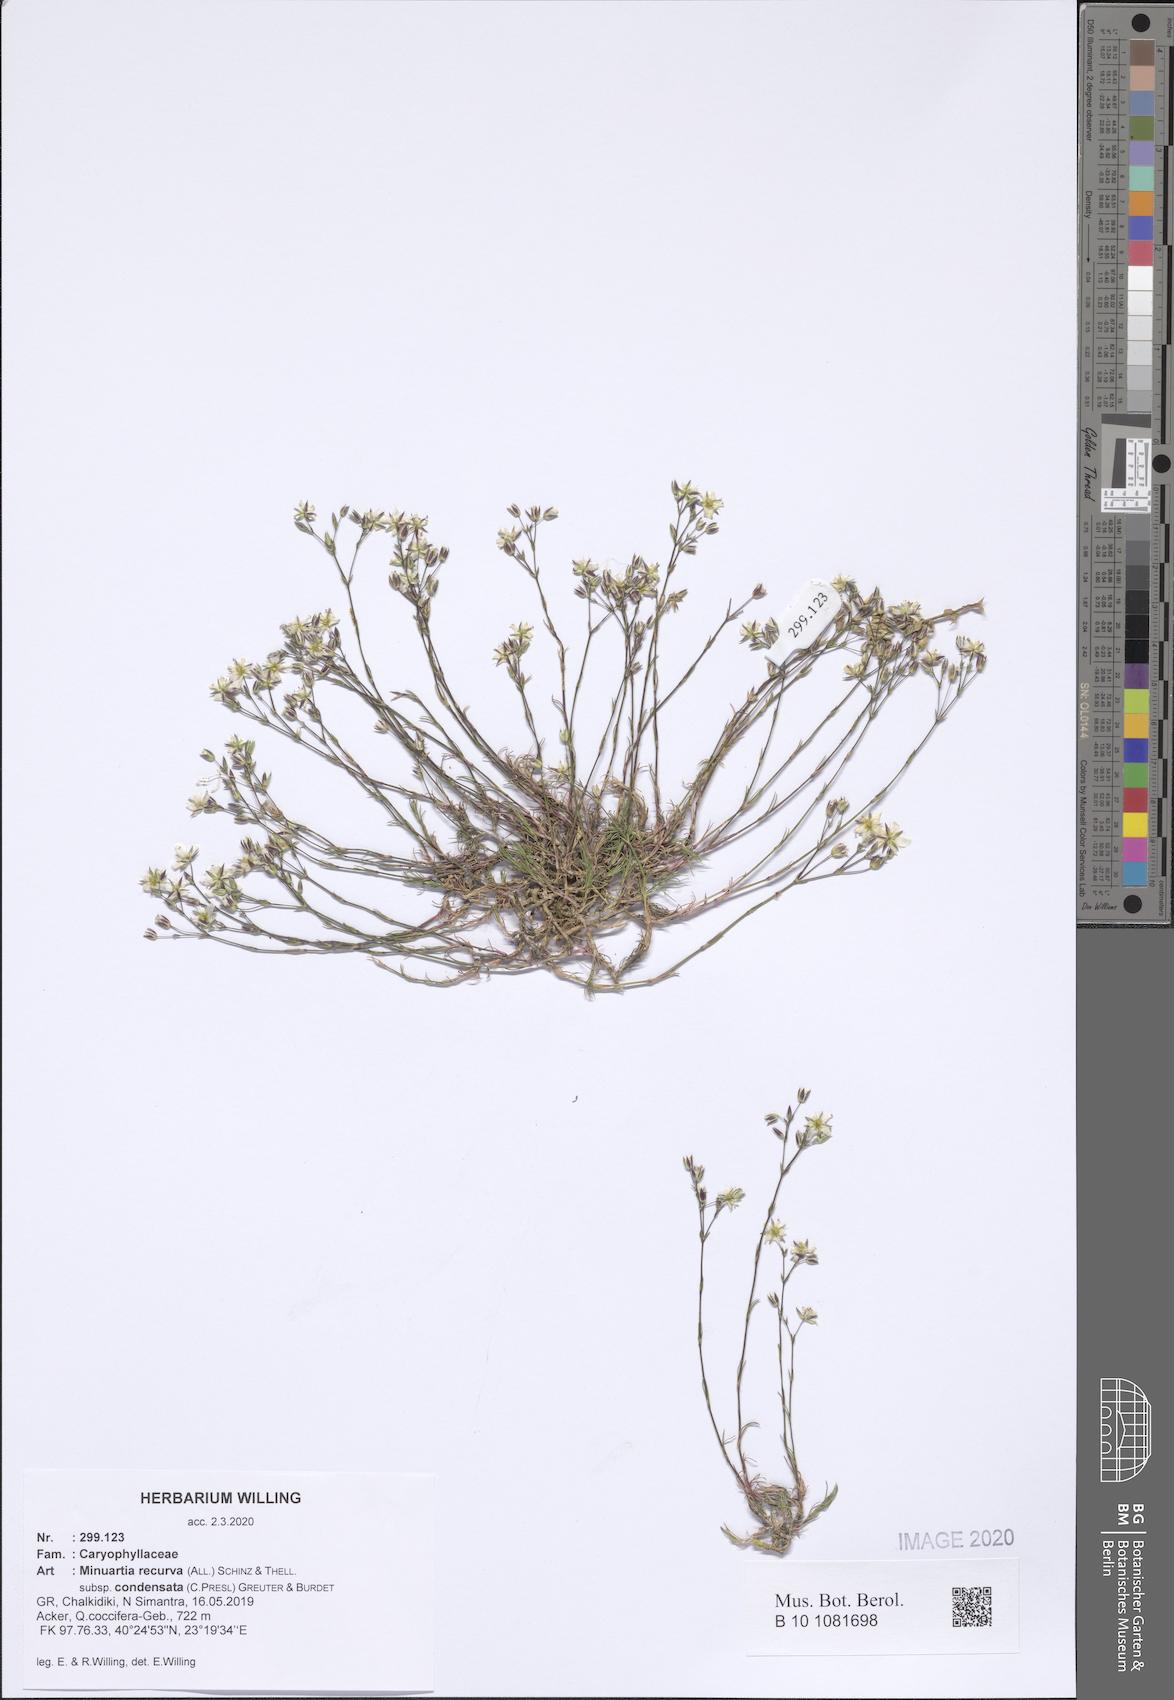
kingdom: Plantae
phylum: Tracheophyta
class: Magnoliopsida
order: Caryophyllales
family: Caryophyllaceae
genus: Minuartia
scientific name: Minuartia recurva
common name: Recurved sandwort
